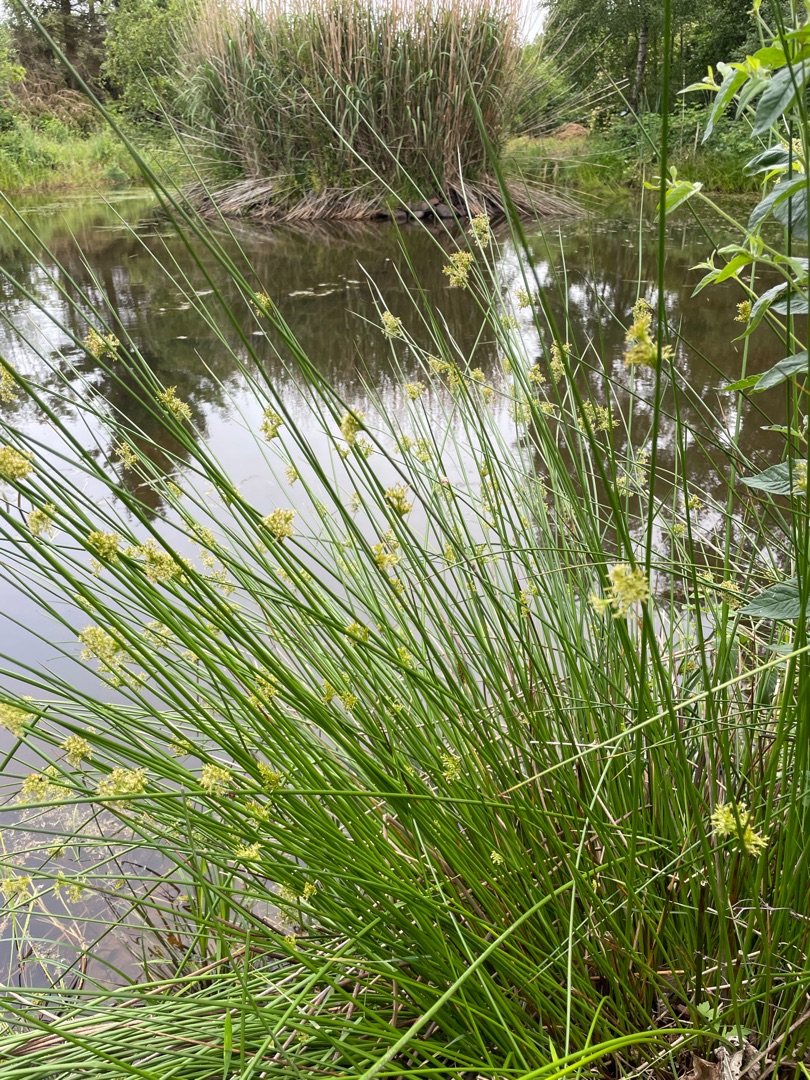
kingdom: Plantae
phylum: Tracheophyta
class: Liliopsida
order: Poales
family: Juncaceae
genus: Juncus
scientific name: Juncus effusus
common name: Lyse-siv
